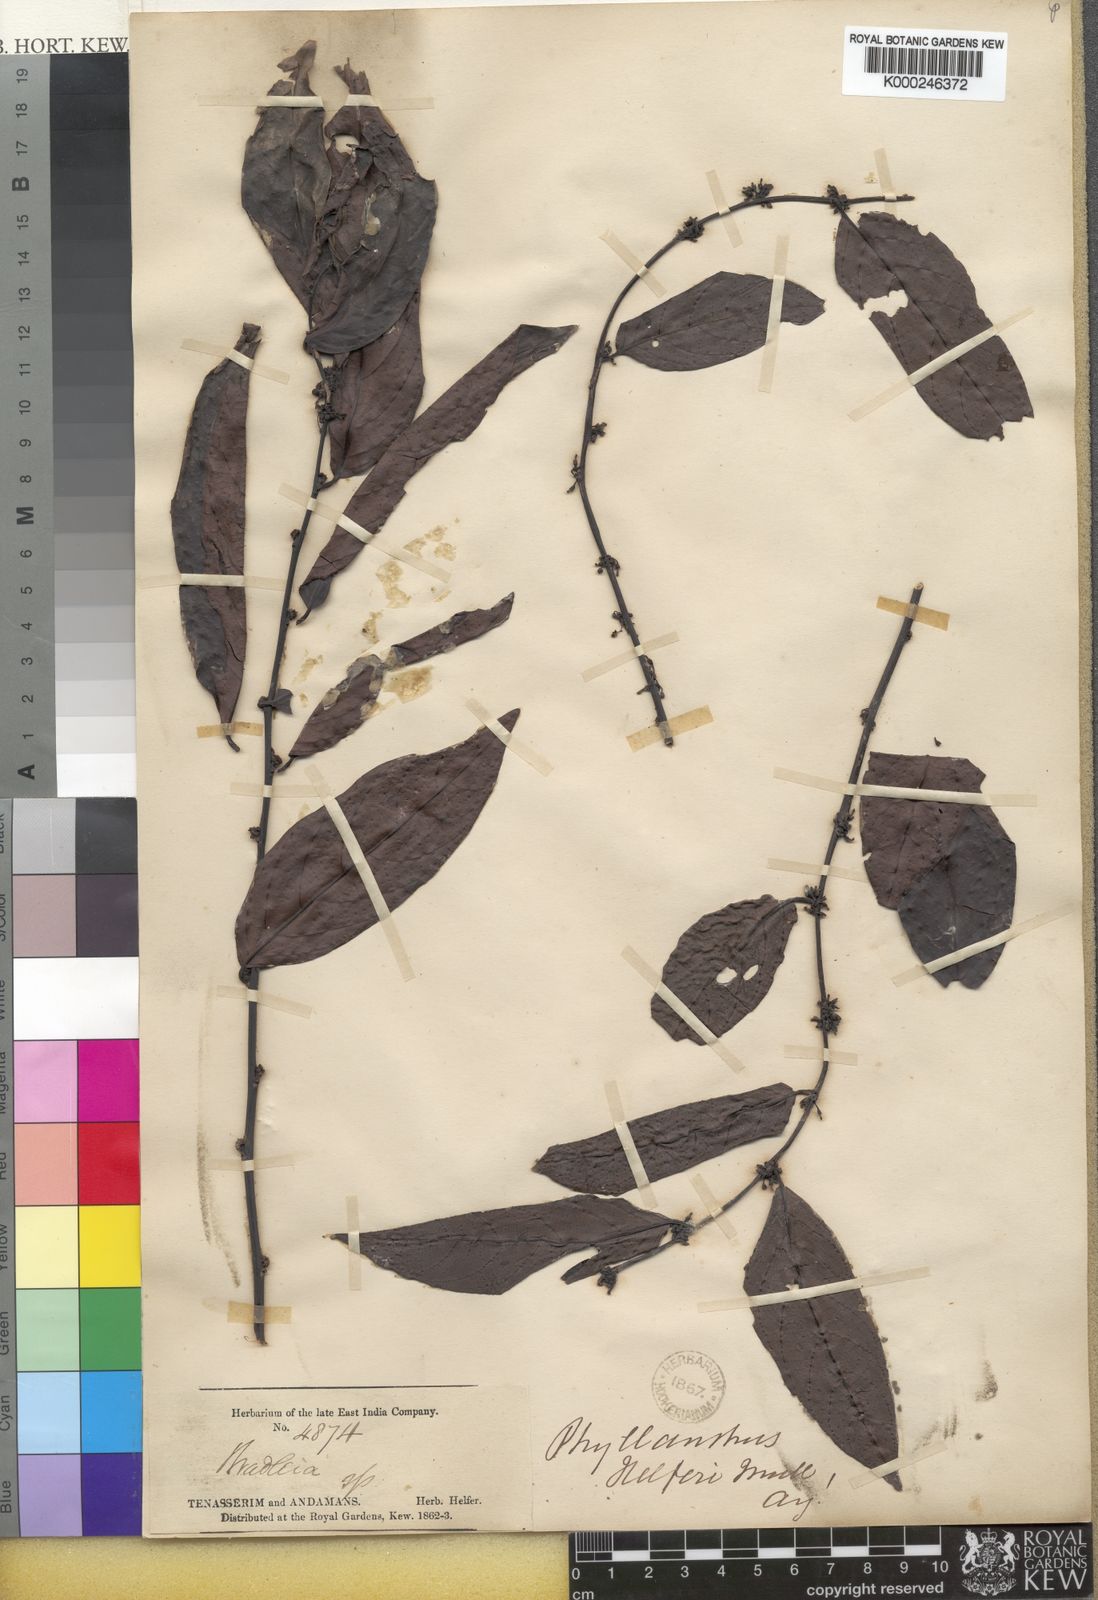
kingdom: Plantae
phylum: Tracheophyta
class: Magnoliopsida
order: Malpighiales
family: Phyllanthaceae
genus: Glochidion
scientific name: Glochidion
